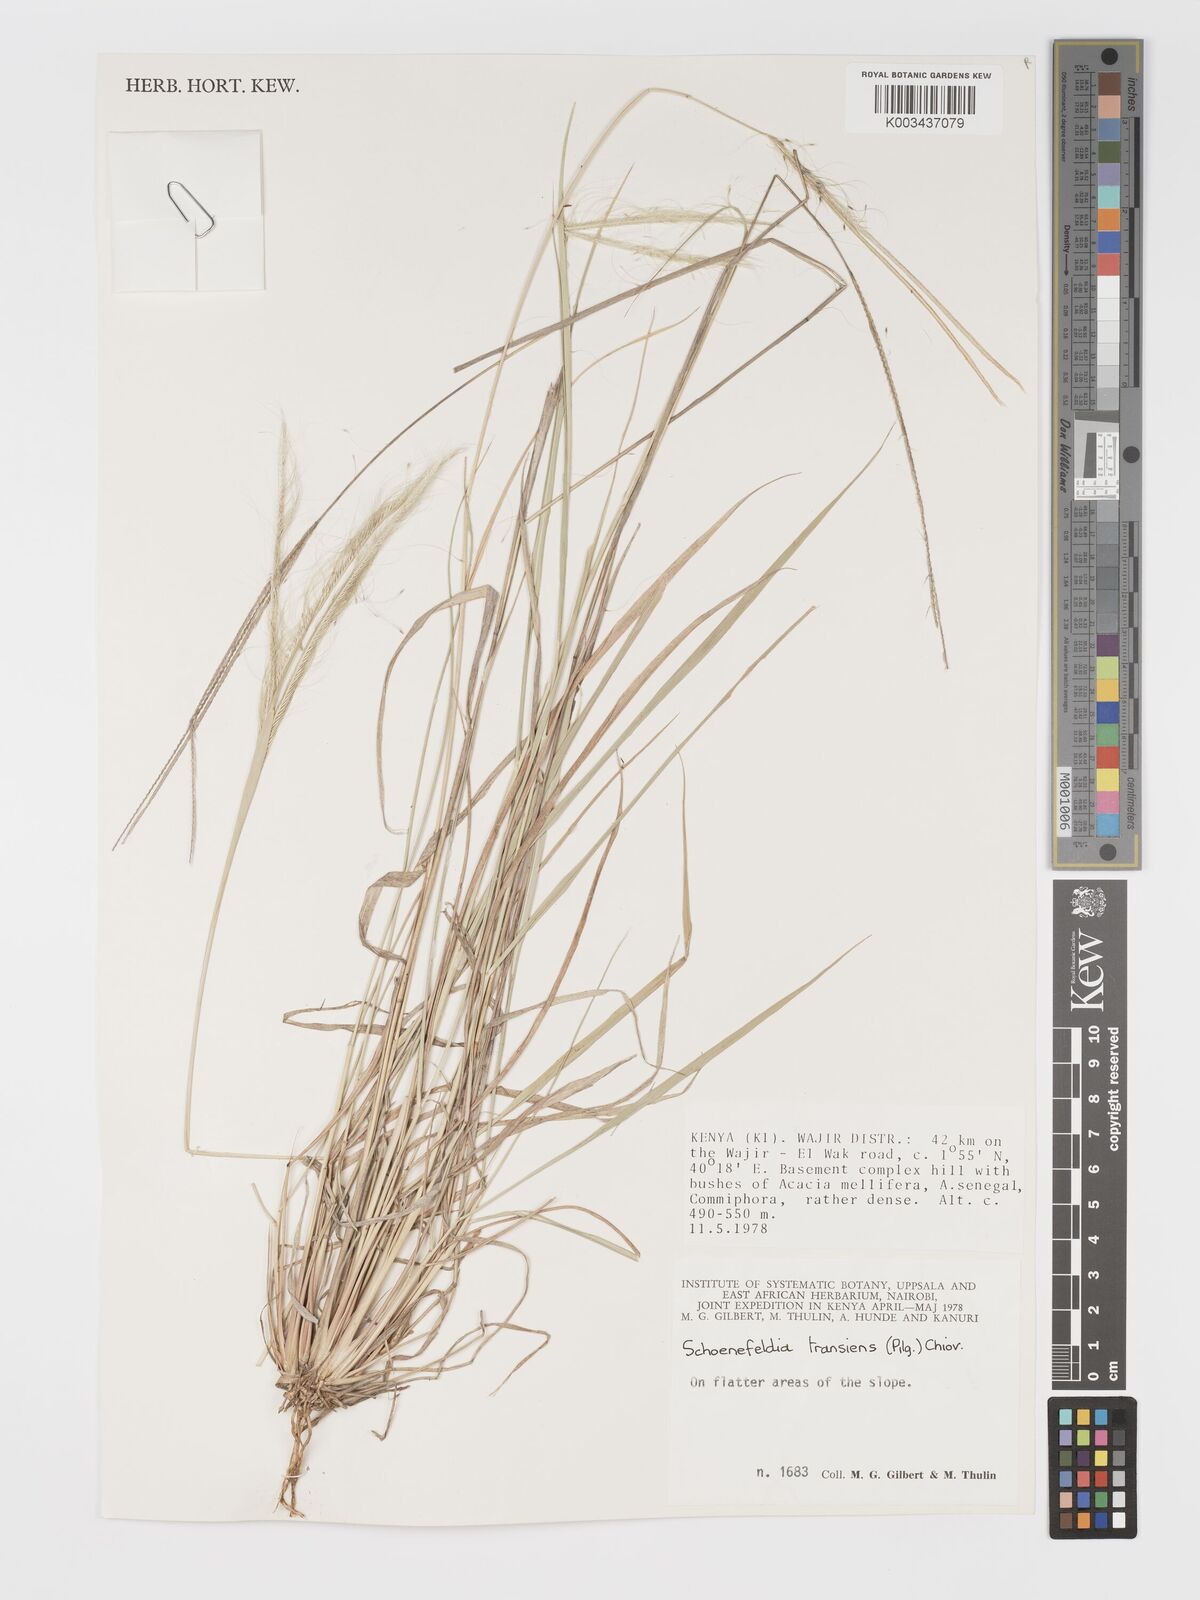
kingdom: Plantae
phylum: Tracheophyta
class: Liliopsida
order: Poales
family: Poaceae
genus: Schoenefeldia
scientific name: Schoenefeldia transiens
